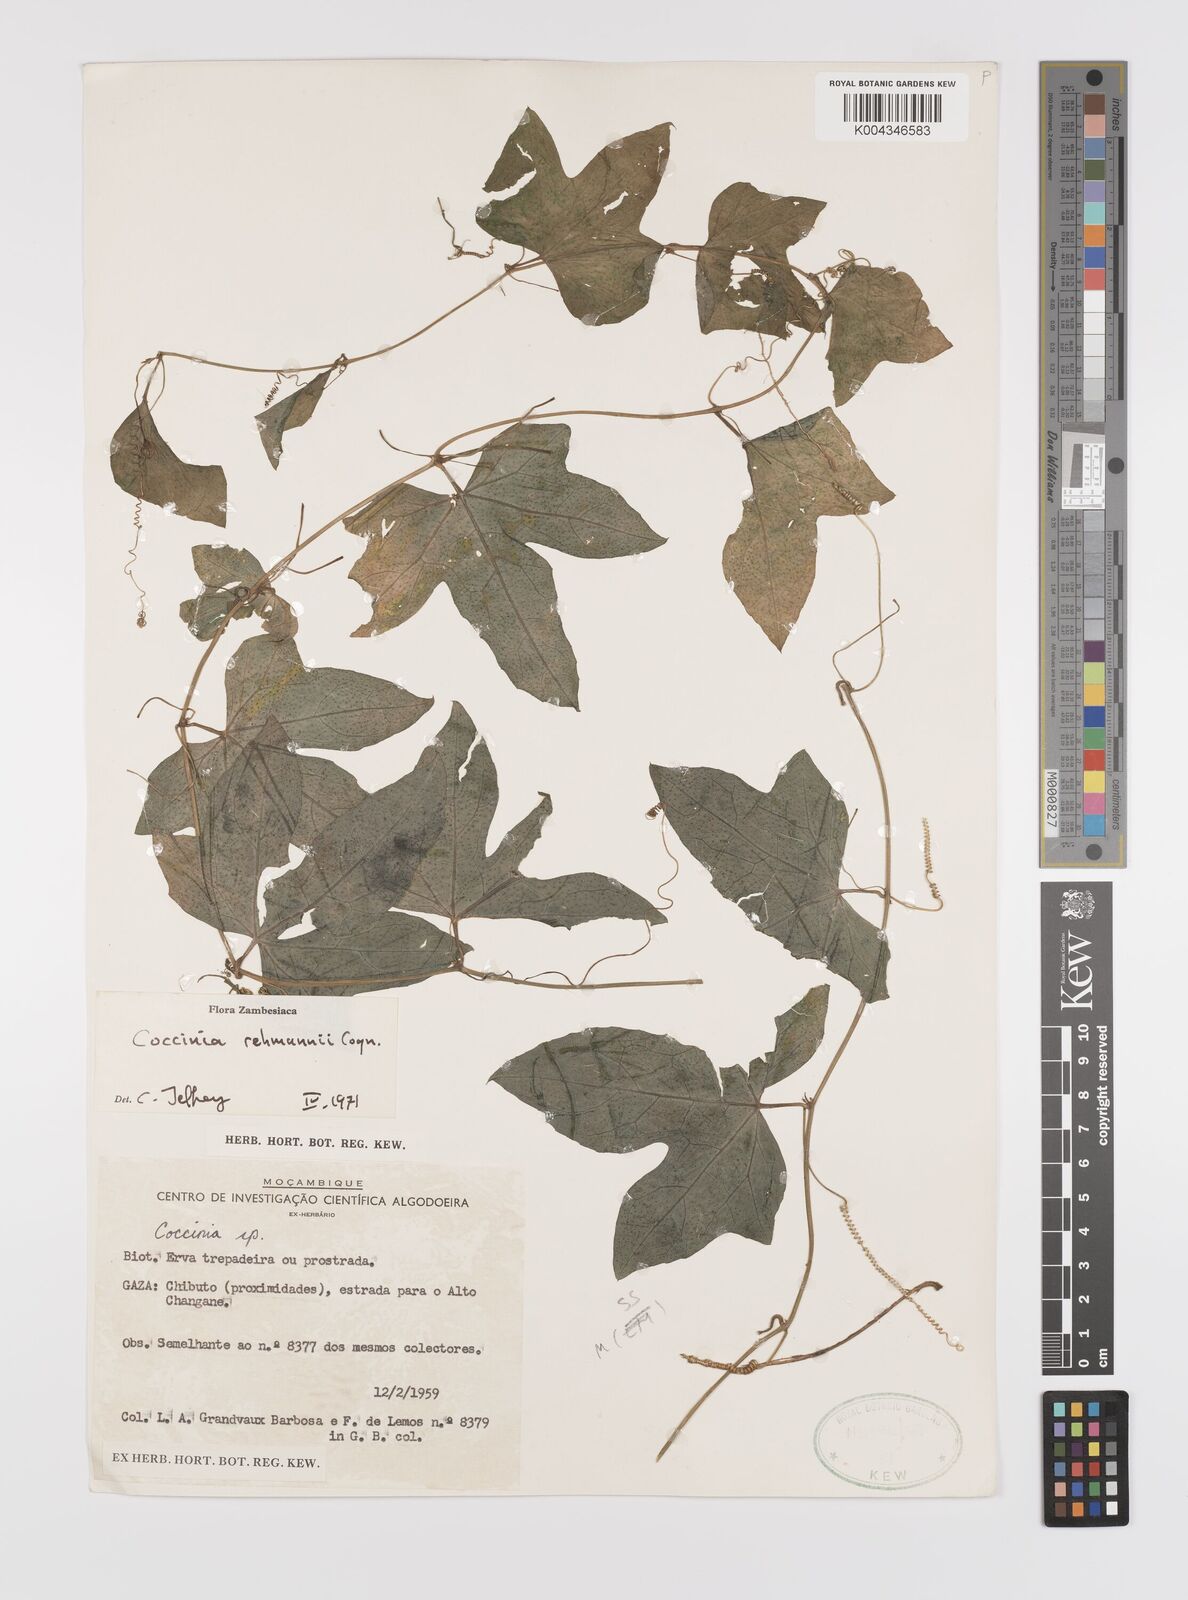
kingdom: Plantae
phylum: Tracheophyta
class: Magnoliopsida
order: Cucurbitales
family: Cucurbitaceae
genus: Coccinia
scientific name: Coccinia rehmannii
